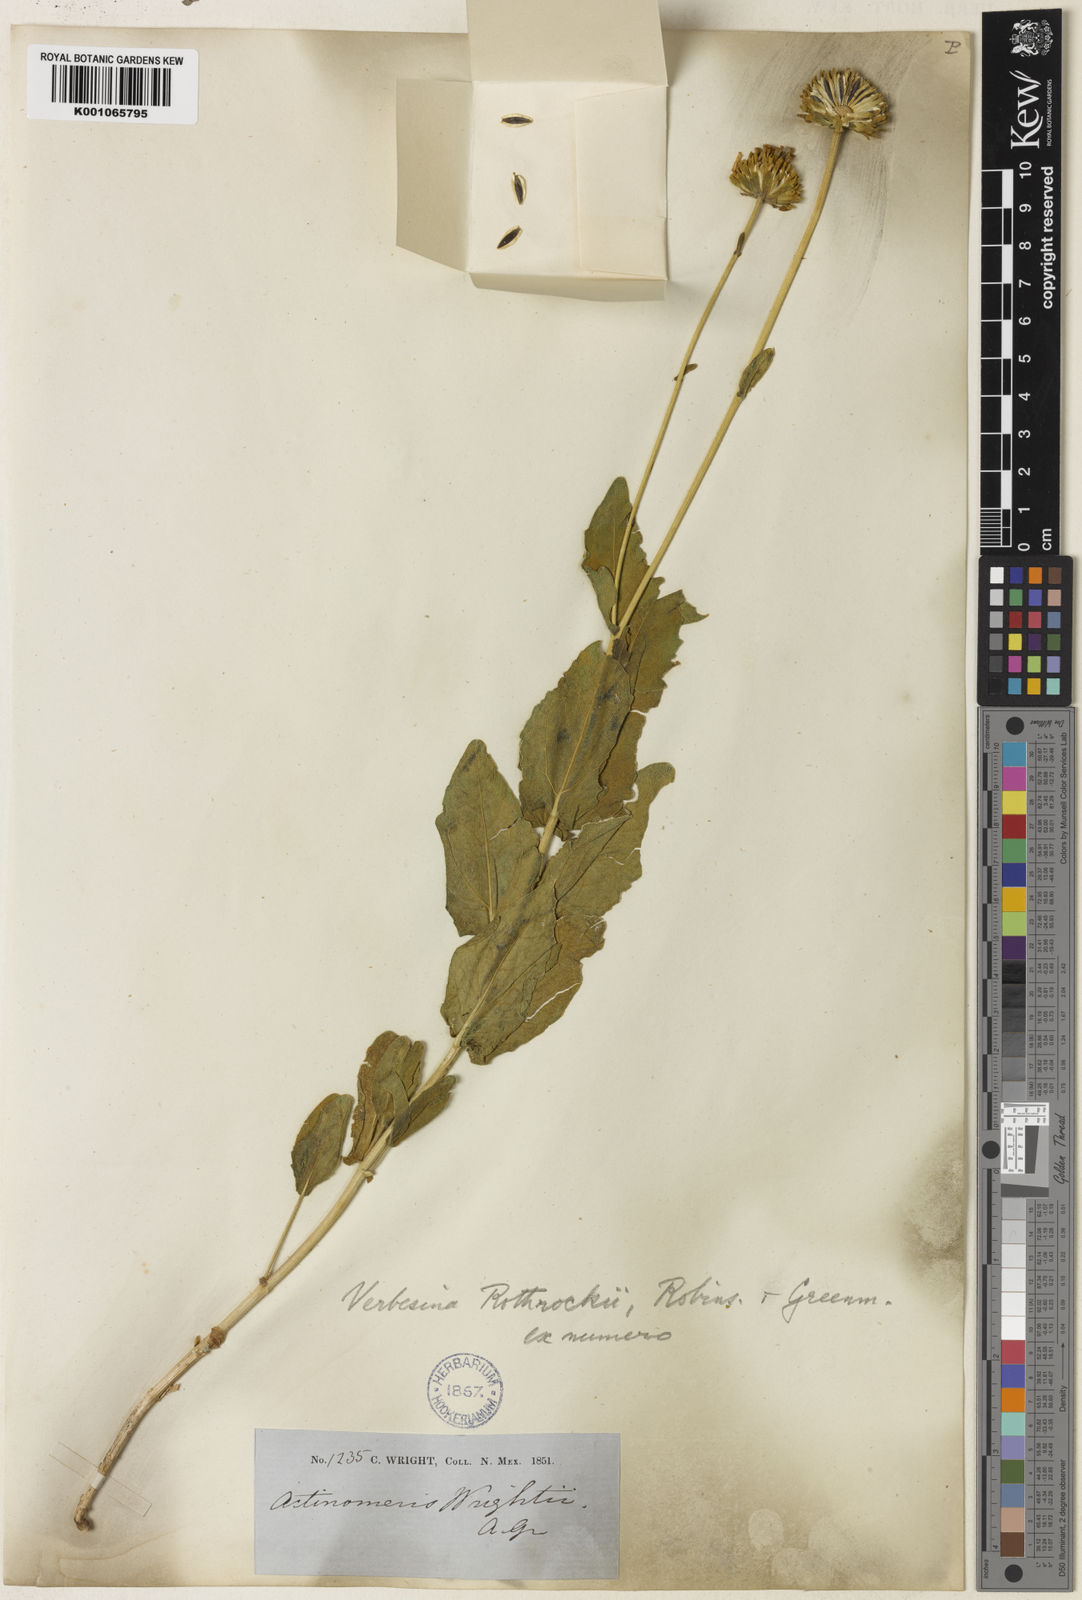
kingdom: Plantae
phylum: Tracheophyta
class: Magnoliopsida
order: Asterales
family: Asteraceae
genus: Verbesina
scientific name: Verbesina
